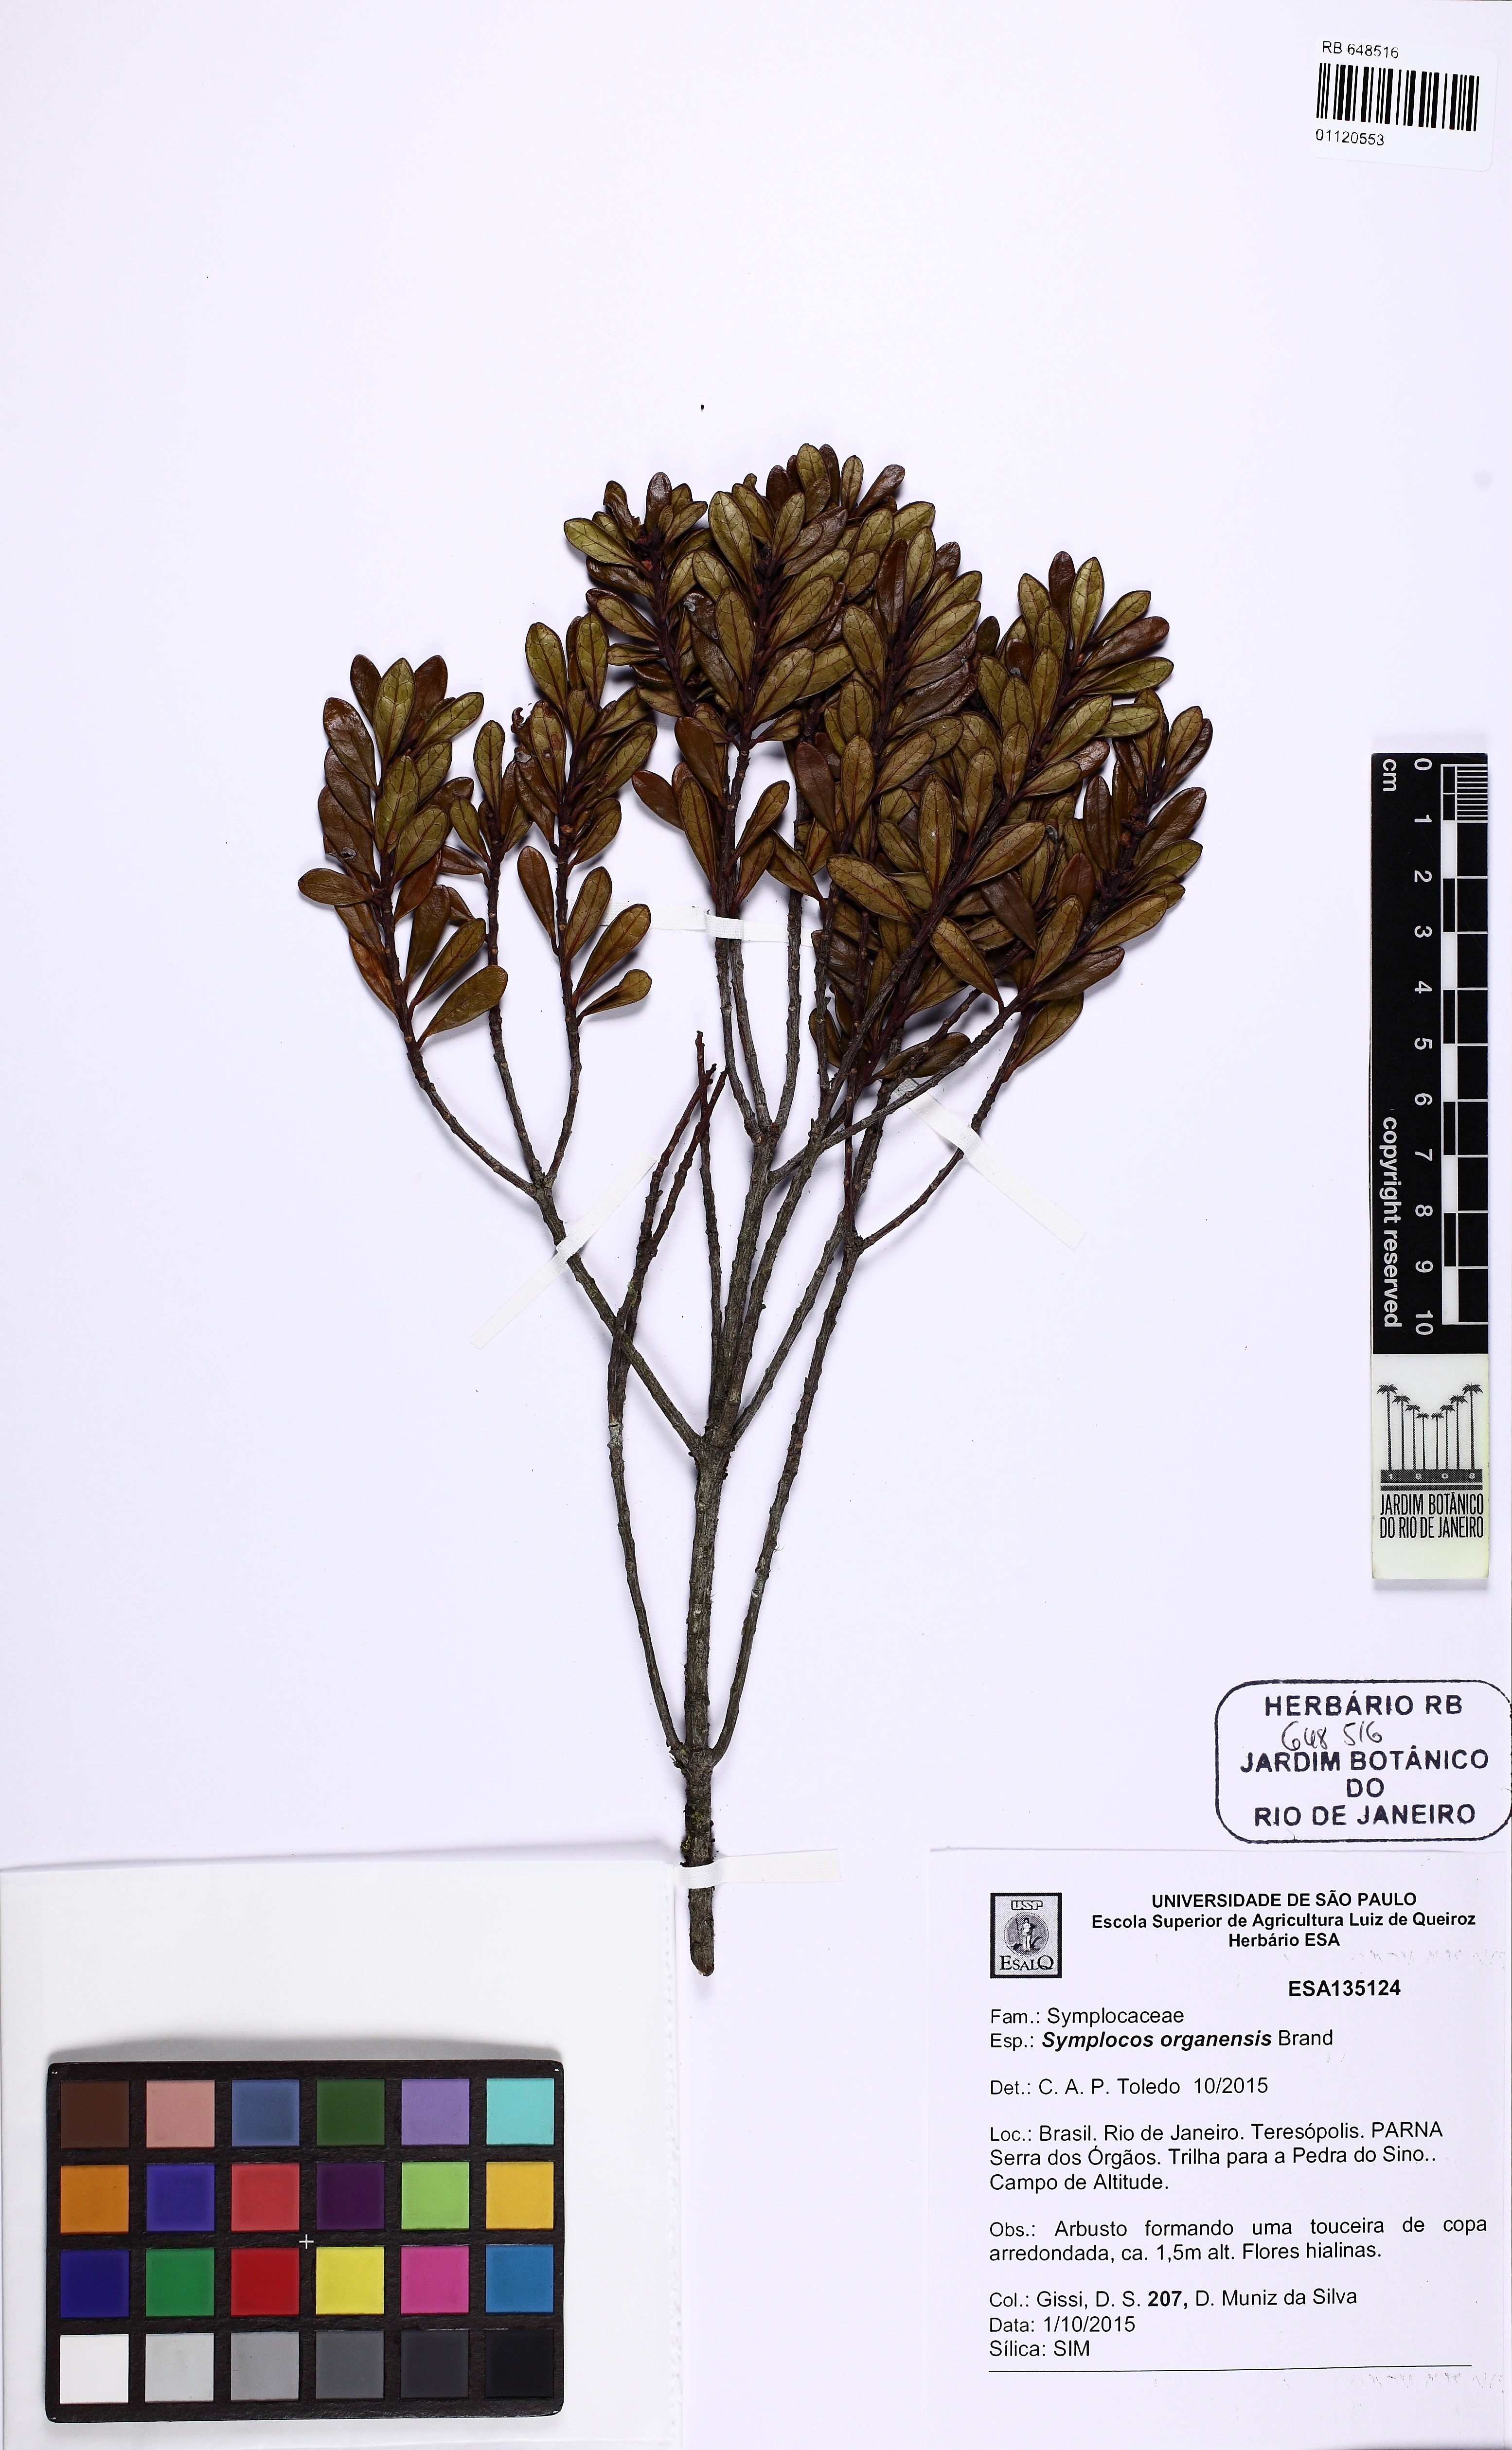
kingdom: Plantae
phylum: Tracheophyta
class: Magnoliopsida
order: Ericales
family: Symplocaceae
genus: Symplocos
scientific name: Symplocos organensis
